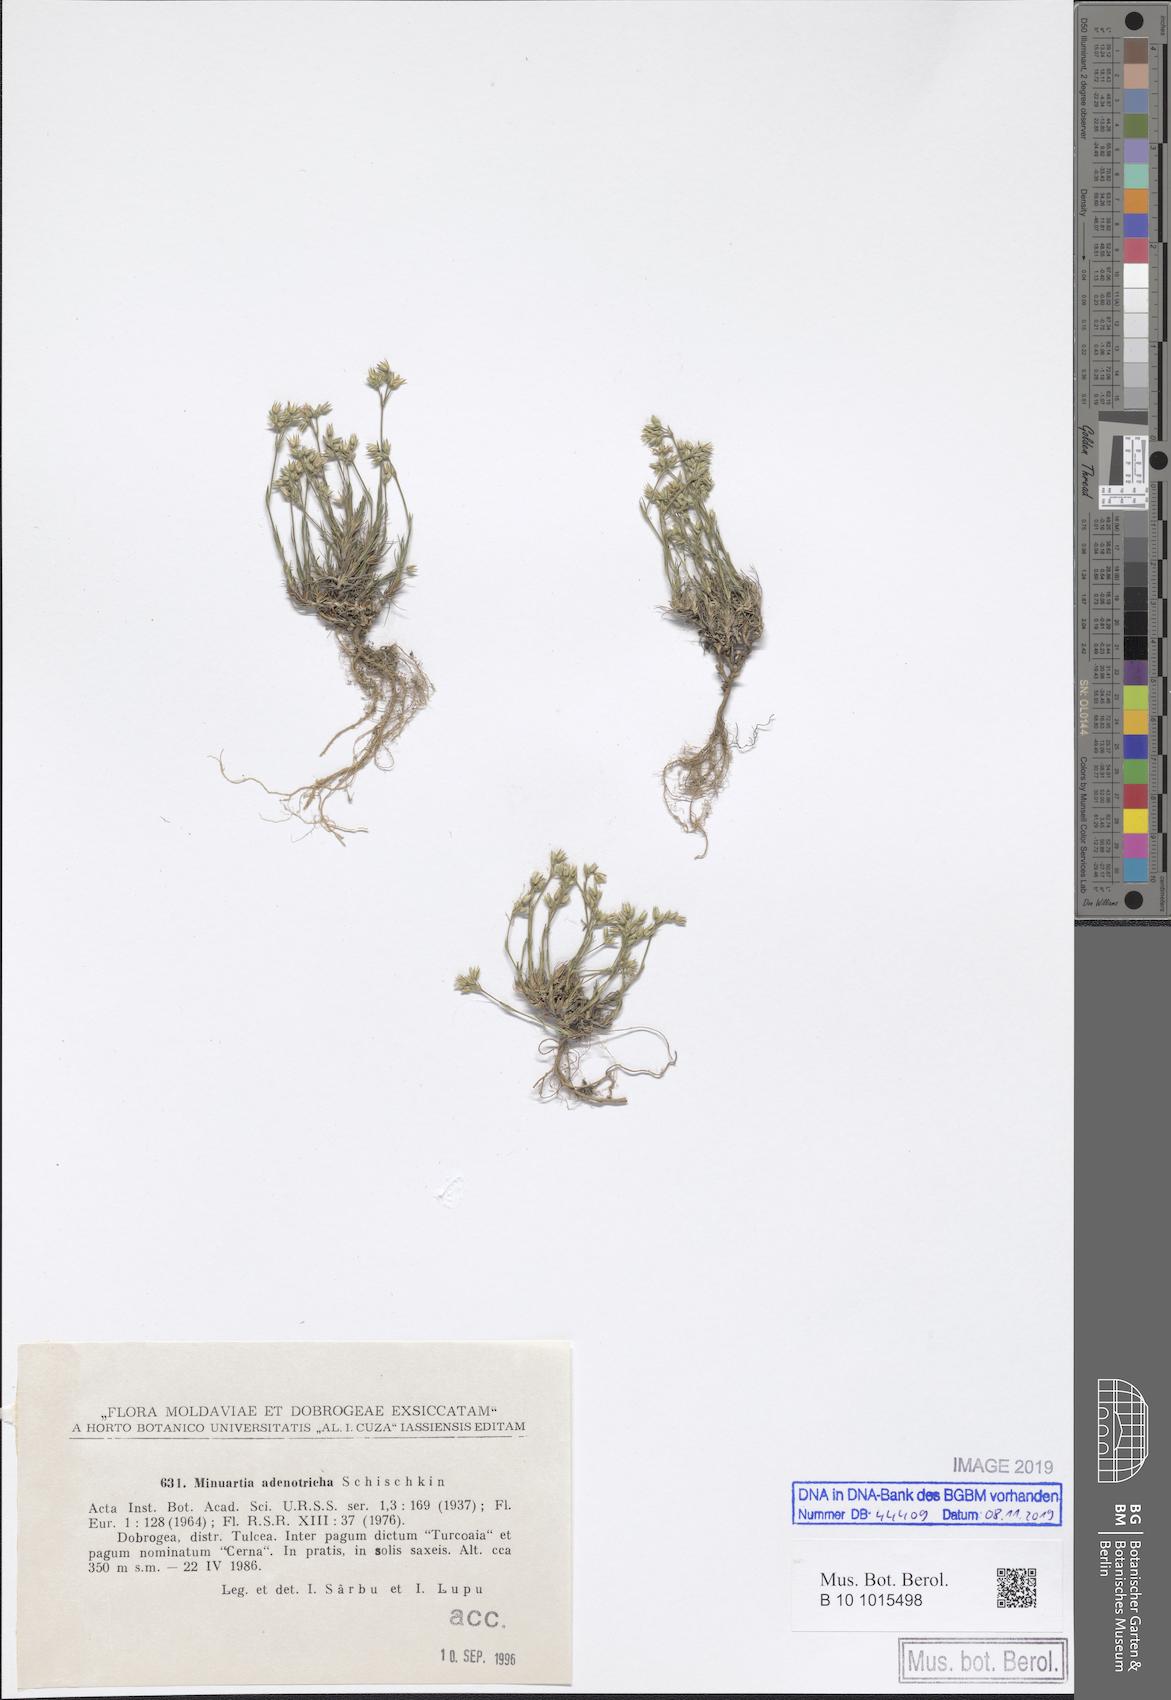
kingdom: Plantae
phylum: Tracheophyta
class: Magnoliopsida
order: Caryophyllales
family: Caryophyllaceae
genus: Minuartia
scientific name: Minuartia adenotricha
